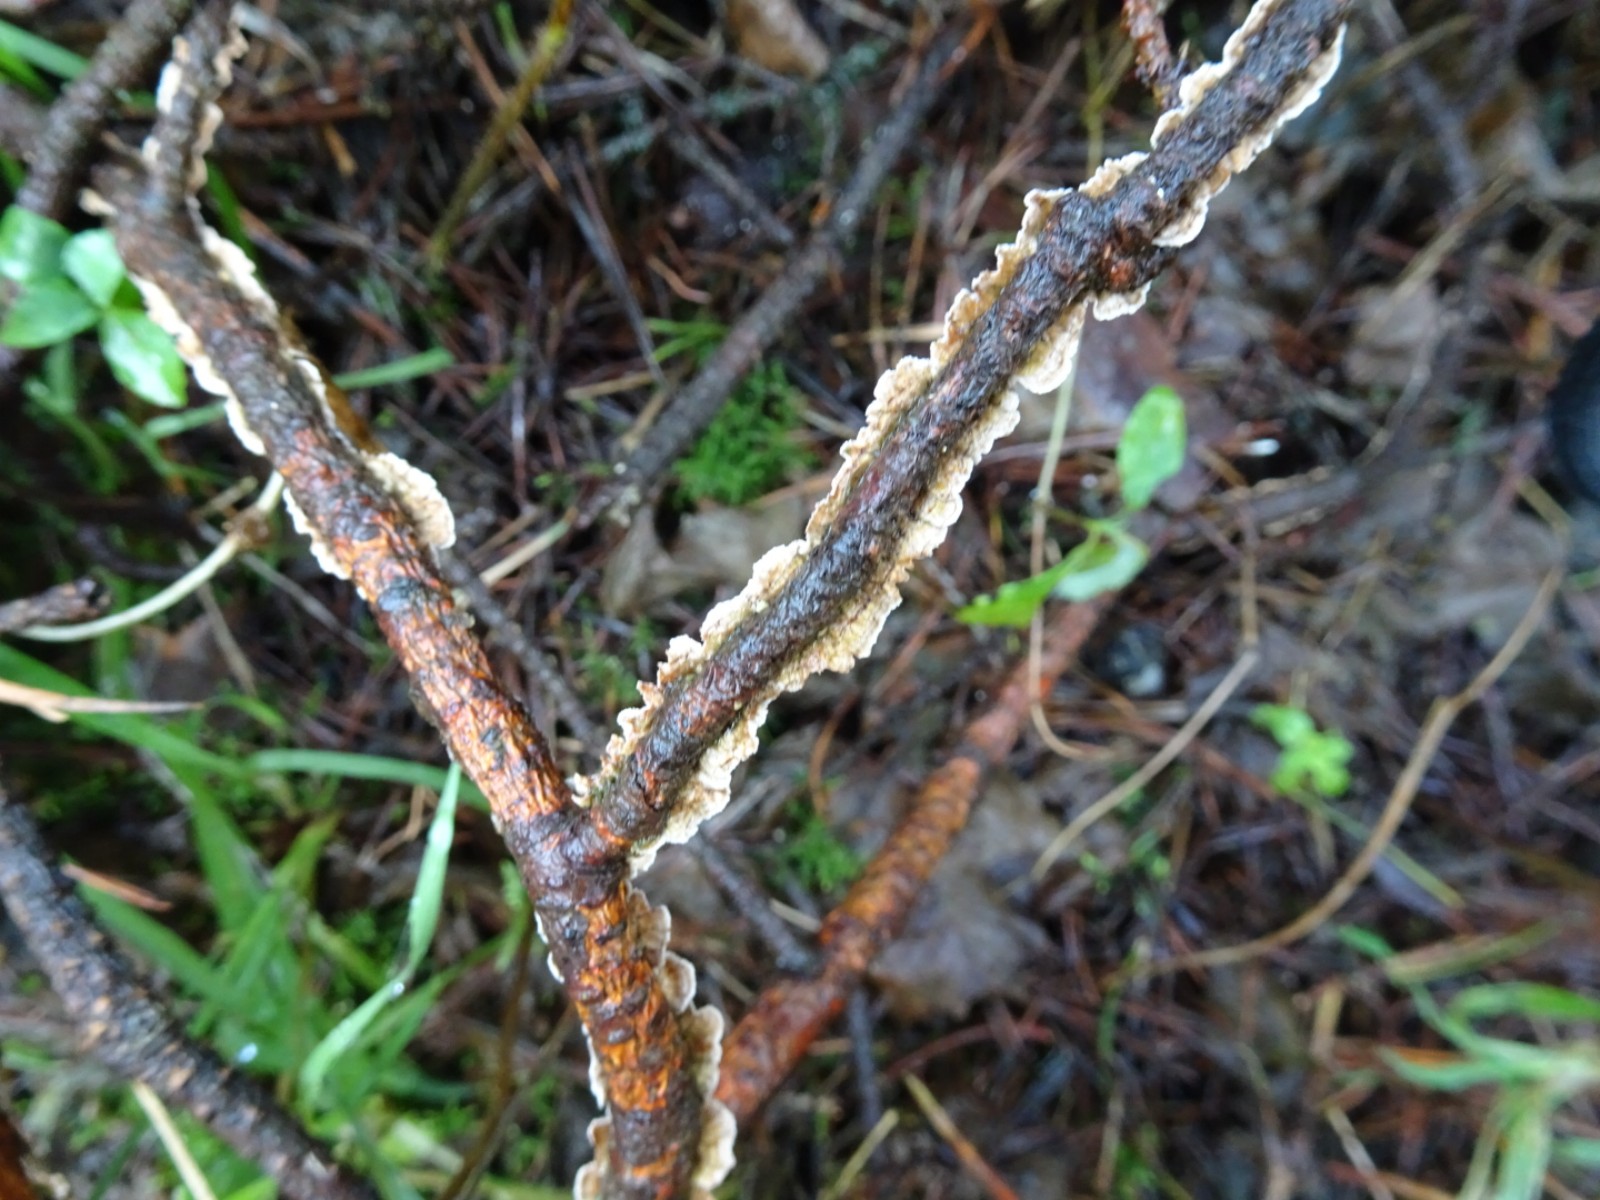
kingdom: Fungi
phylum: Basidiomycota
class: Agaricomycetes
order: Russulales
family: Stereaceae
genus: Stereum
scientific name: Stereum sanguinolentum
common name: blødende lædersvamp
